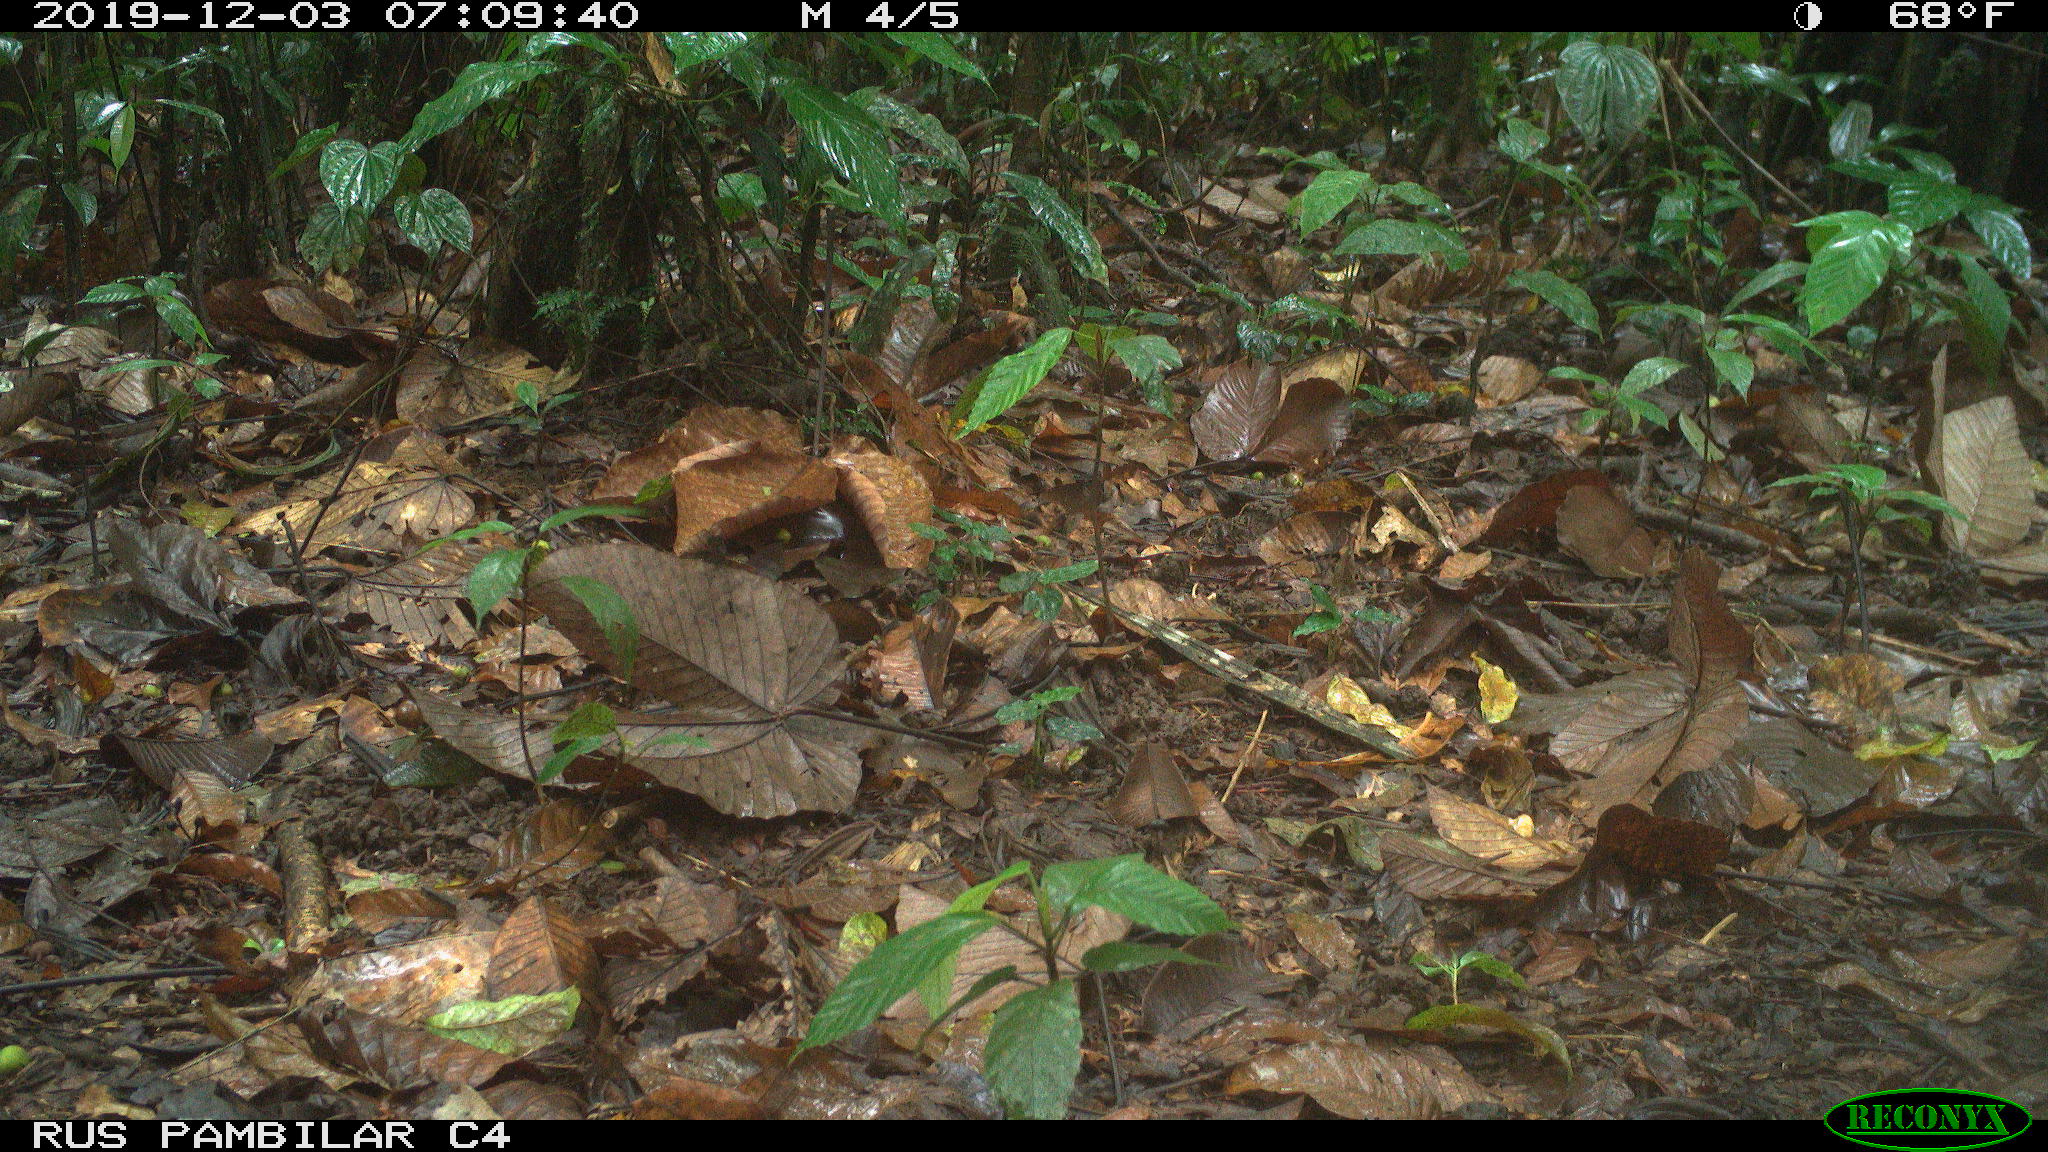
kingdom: Animalia
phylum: Chordata
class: Mammalia
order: Rodentia
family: Dasyproctidae
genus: Dasyprocta
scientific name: Dasyprocta punctata
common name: Central american agouti
